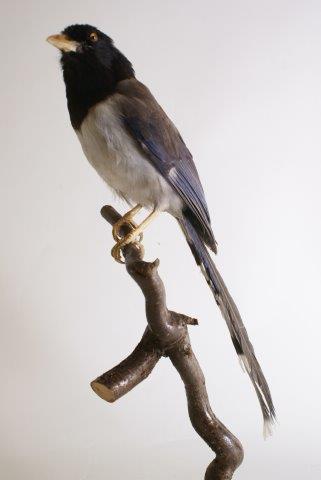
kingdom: Animalia
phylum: Chordata
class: Aves
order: Passeriformes
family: Corvidae
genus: Urocissa
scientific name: Urocissa erythroryncha
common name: Red-billed blue magpie
